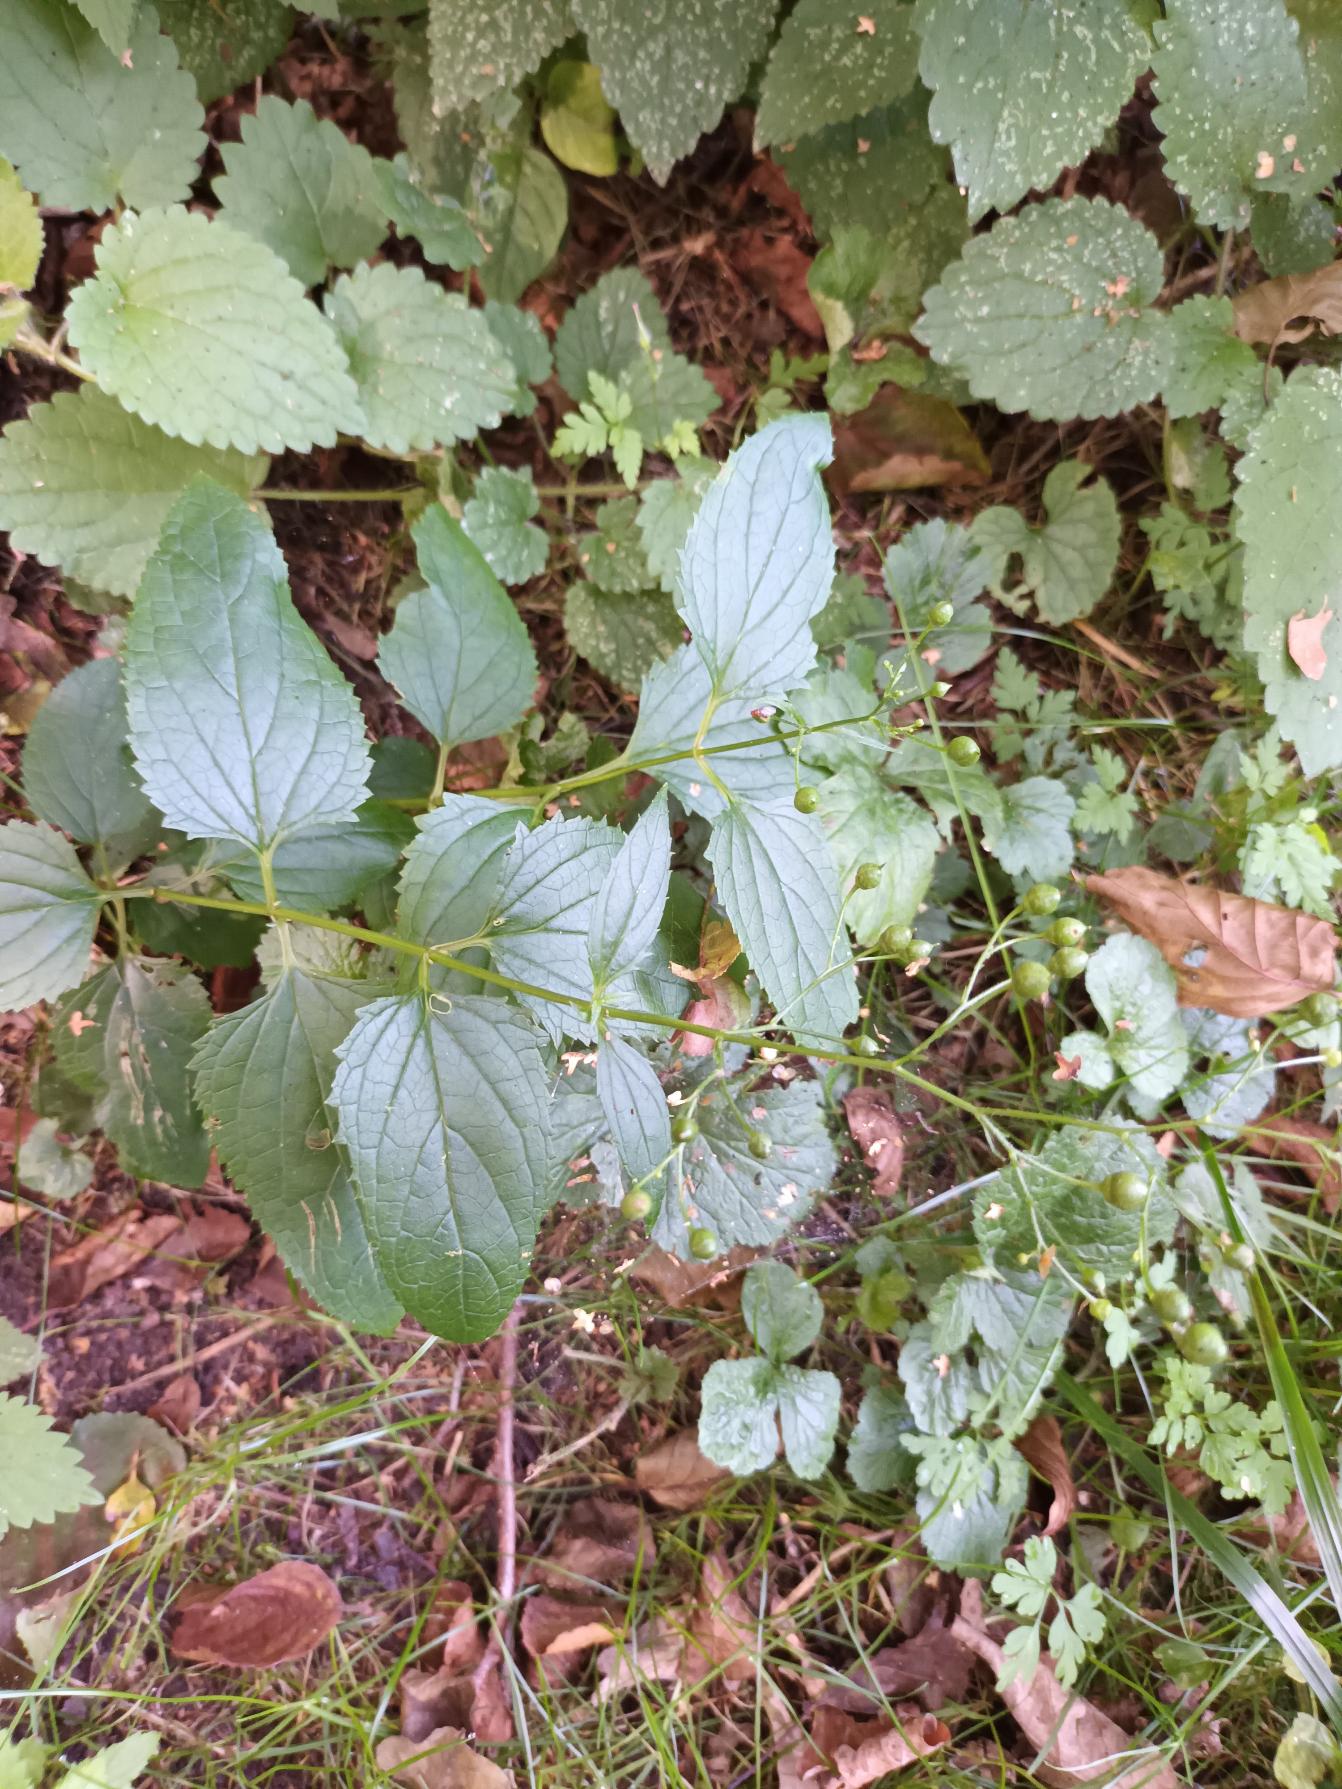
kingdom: Plantae
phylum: Tracheophyta
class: Magnoliopsida
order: Lamiales
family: Scrophulariaceae
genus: Scrophularia
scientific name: Scrophularia nodosa
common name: Knoldet brunrod
